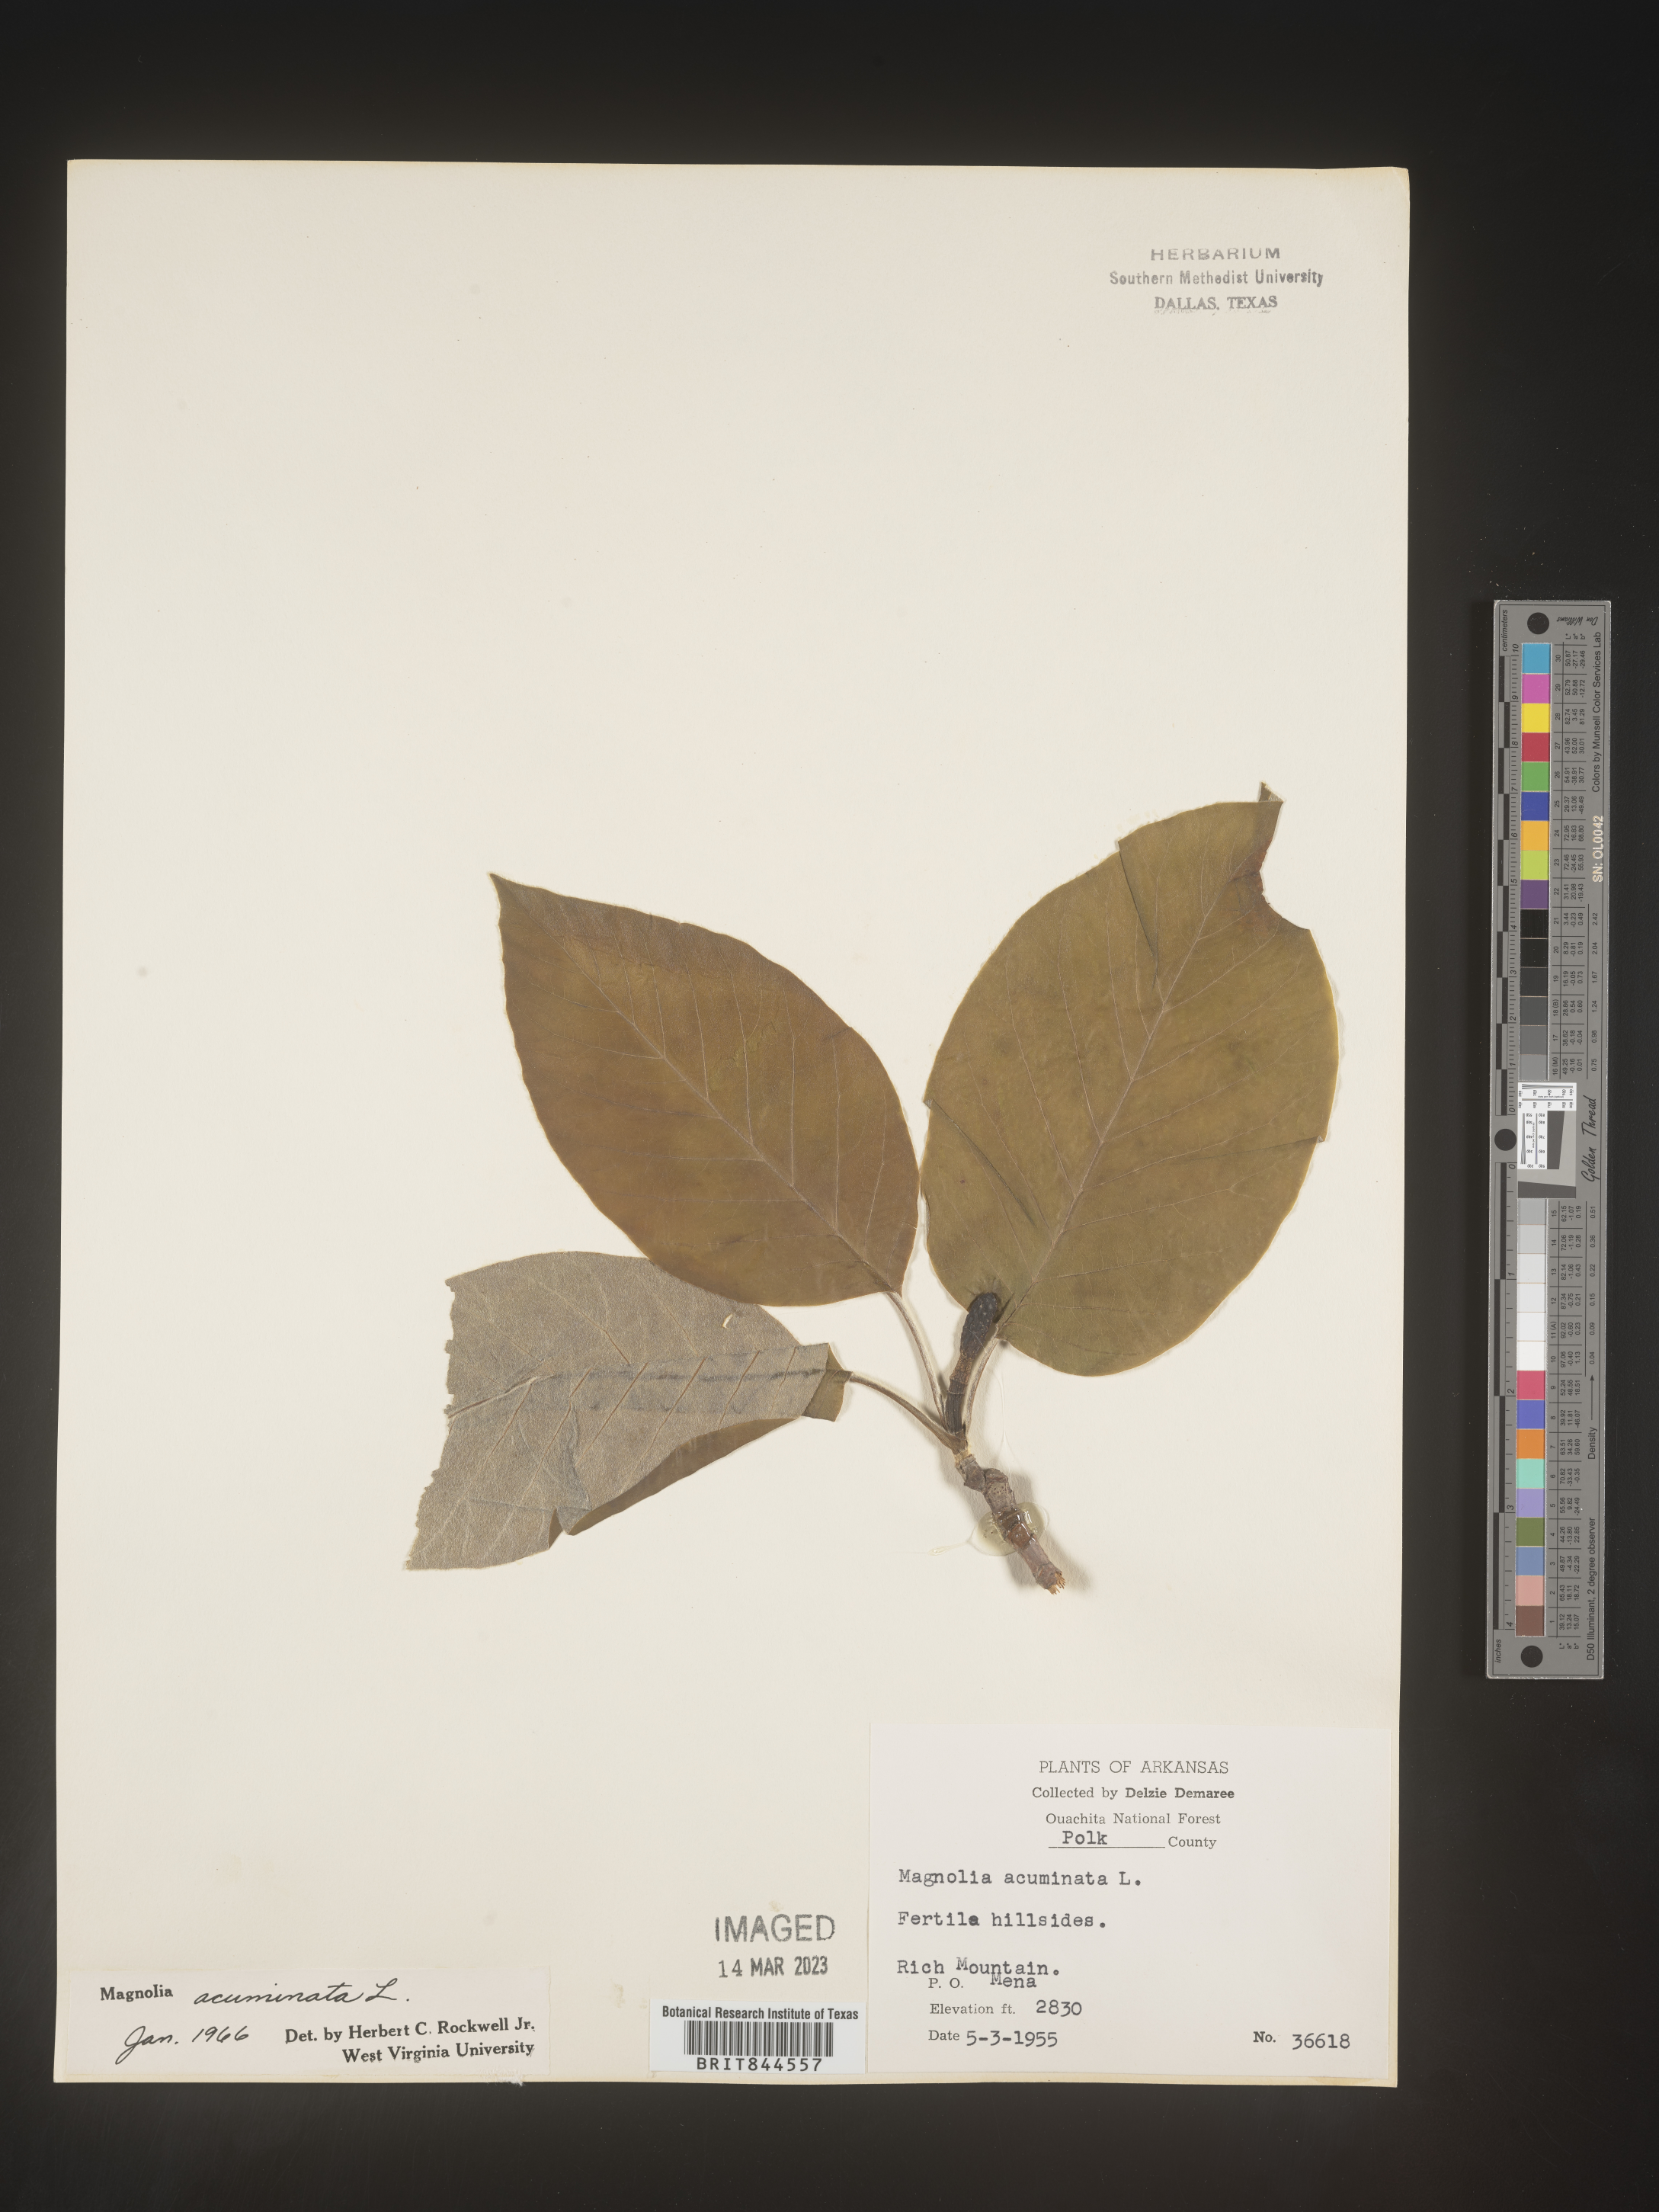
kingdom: Plantae
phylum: Tracheophyta
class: Magnoliopsida
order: Magnoliales
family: Magnoliaceae
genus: Magnolia
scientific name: Magnolia acuminata
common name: Cucumber magnolia
